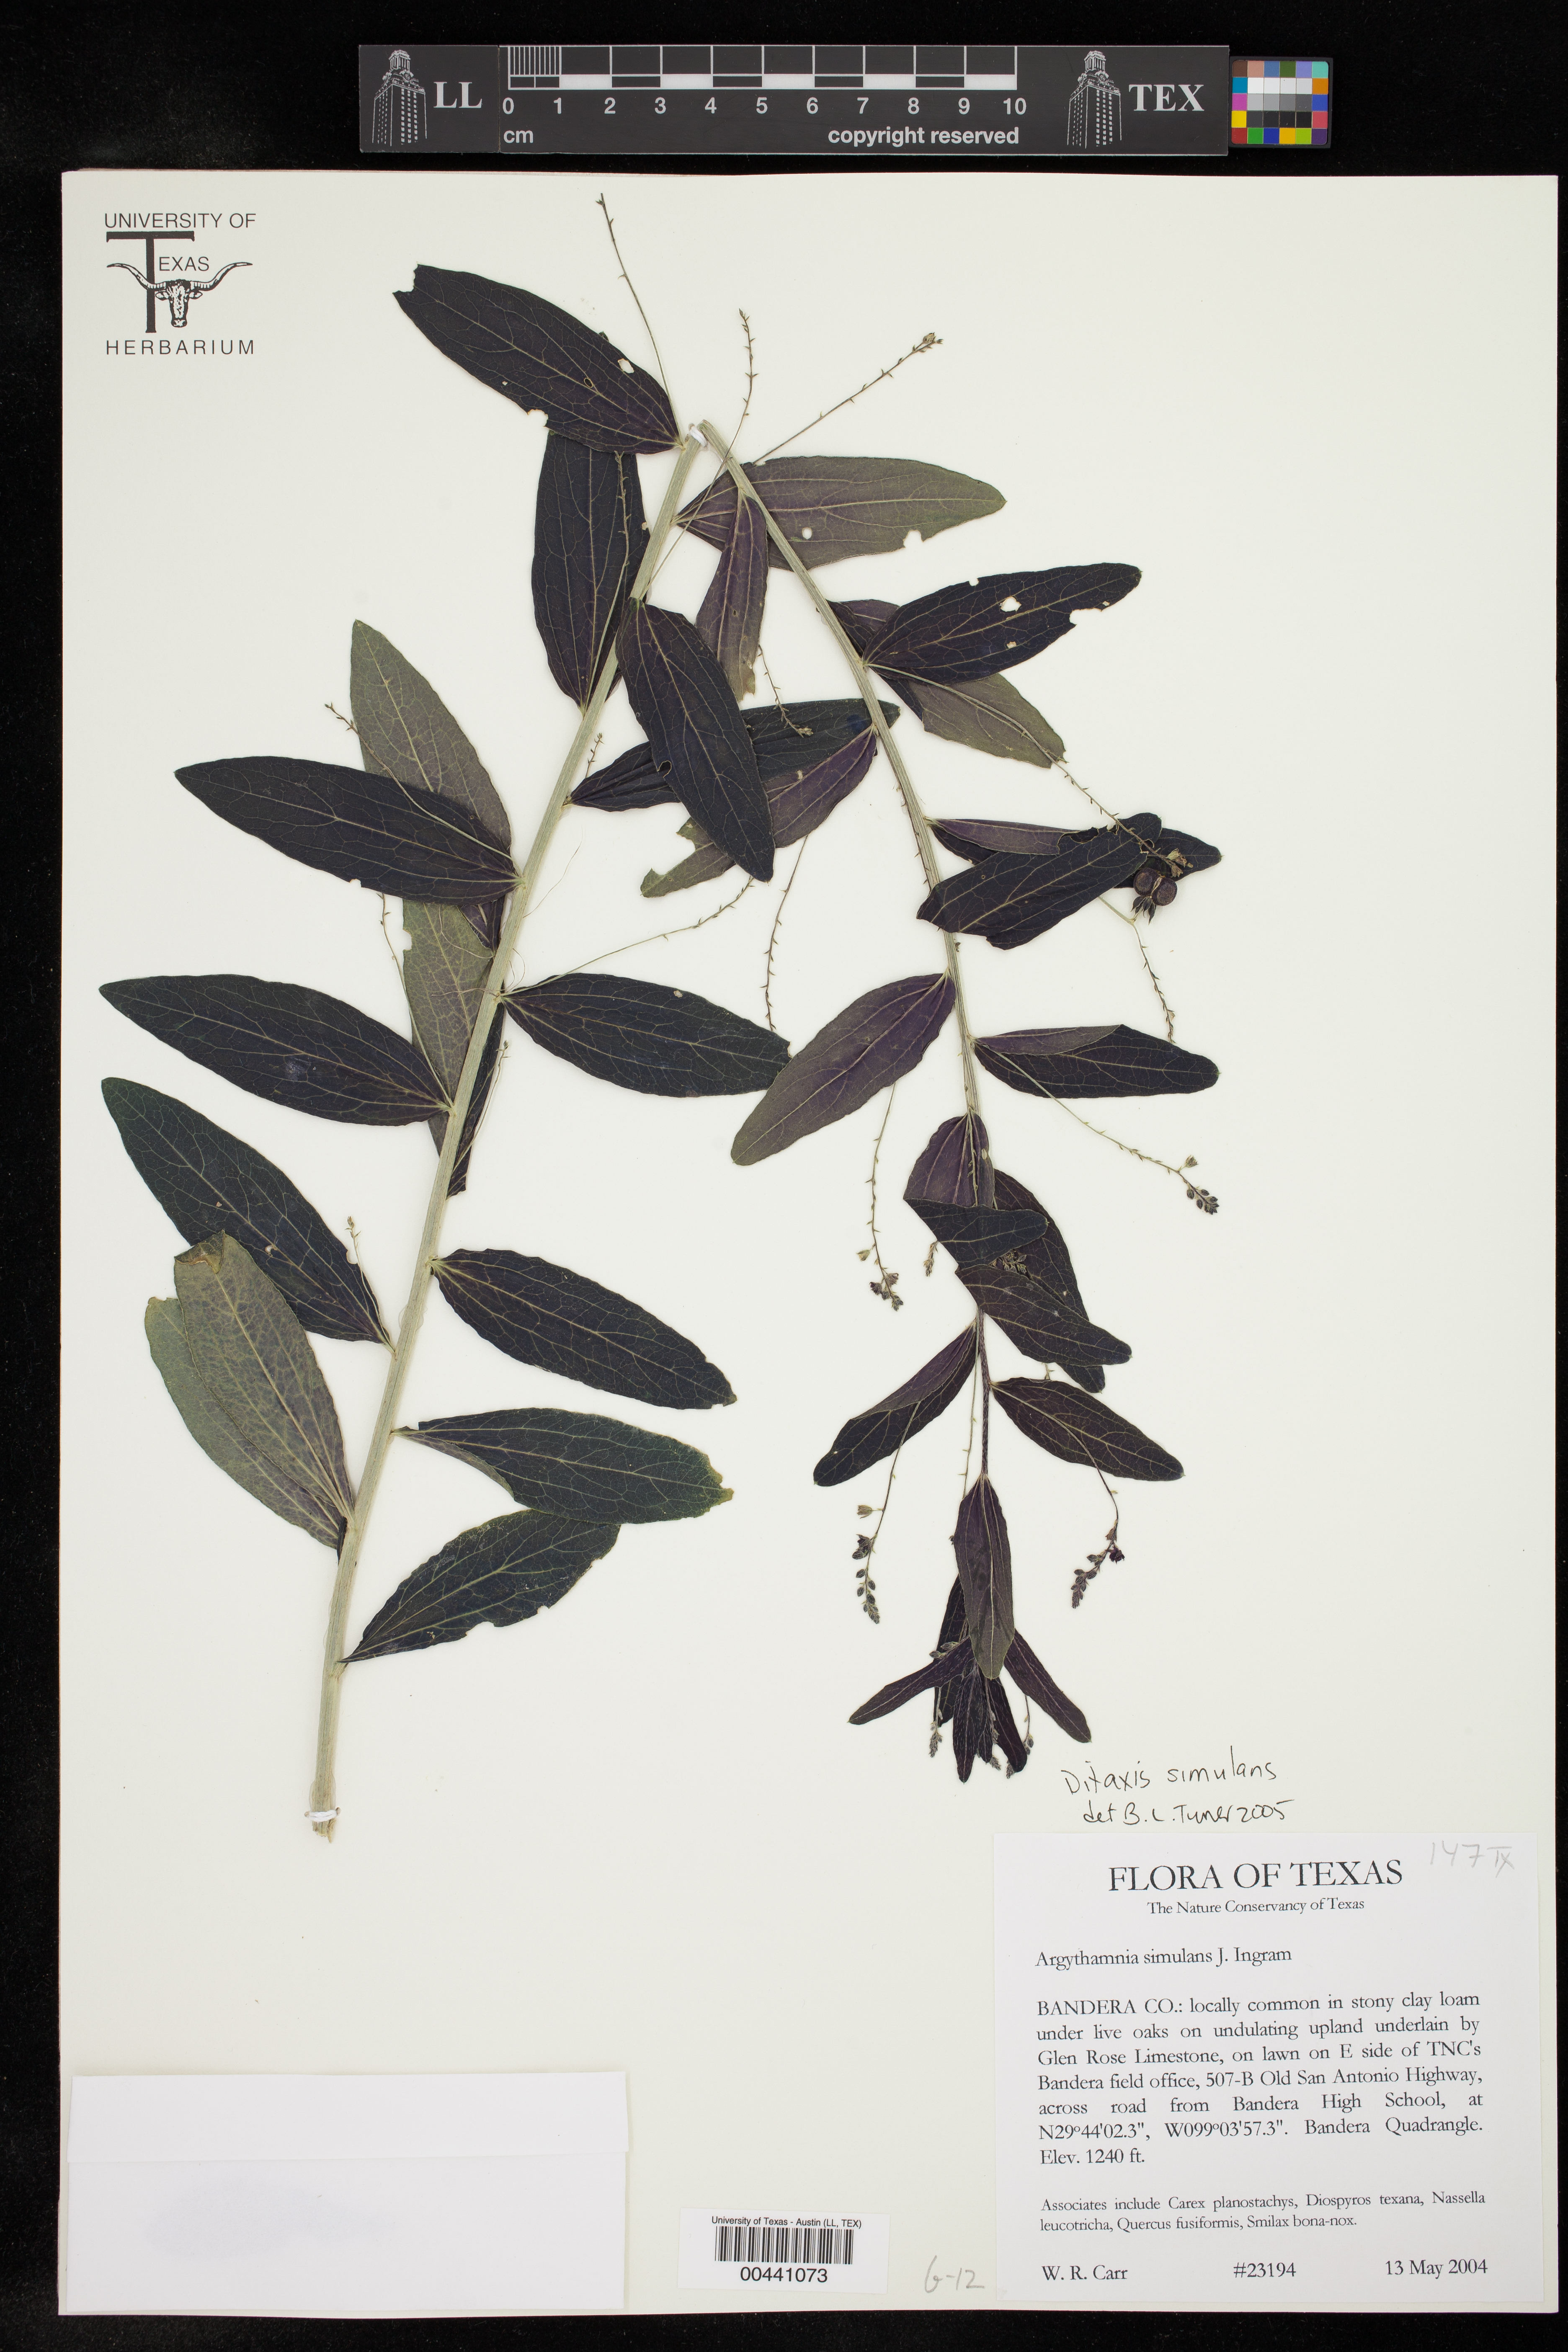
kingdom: Plantae
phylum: Tracheophyta
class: Magnoliopsida
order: Malpighiales
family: Euphorbiaceae
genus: Ditaxis
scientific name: Ditaxis simulans
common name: Plateau silverbush
